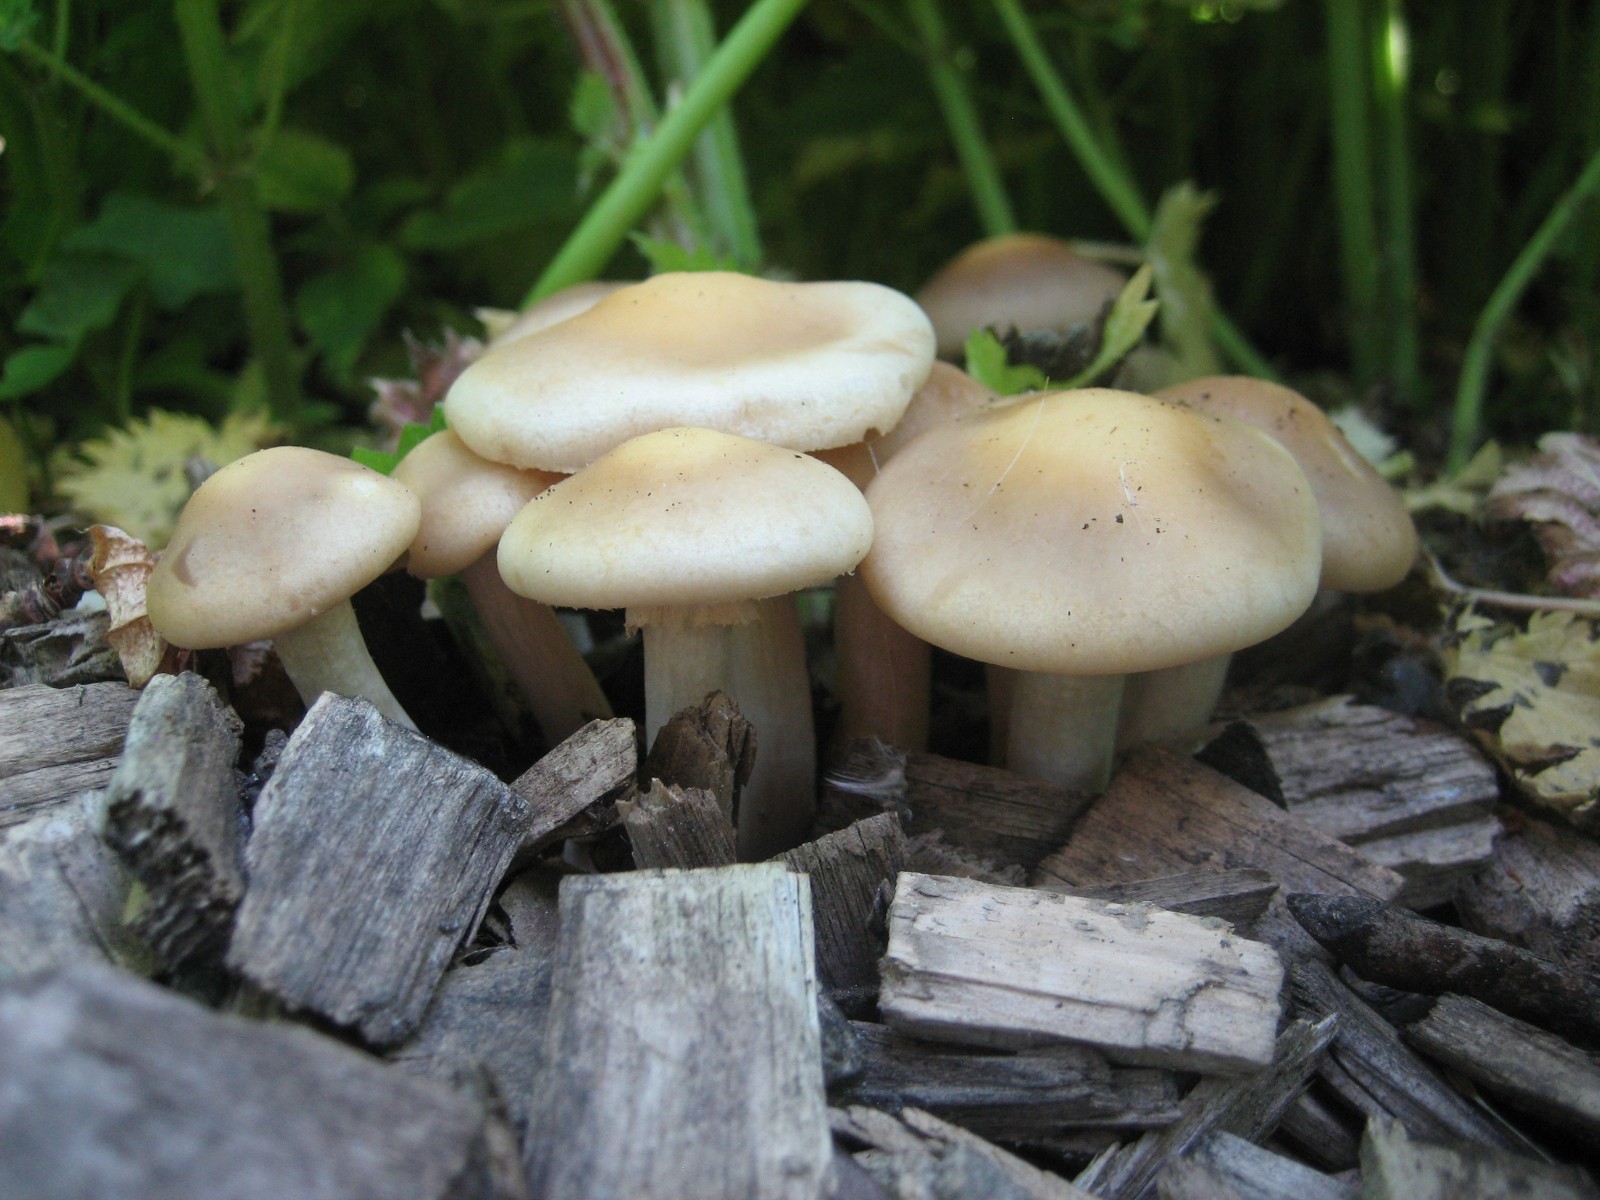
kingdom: Fungi
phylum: Basidiomycota
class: Agaricomycetes
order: Agaricales
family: Strophariaceae
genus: Agrocybe
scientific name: Agrocybe praecox
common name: tidlig agerhat
